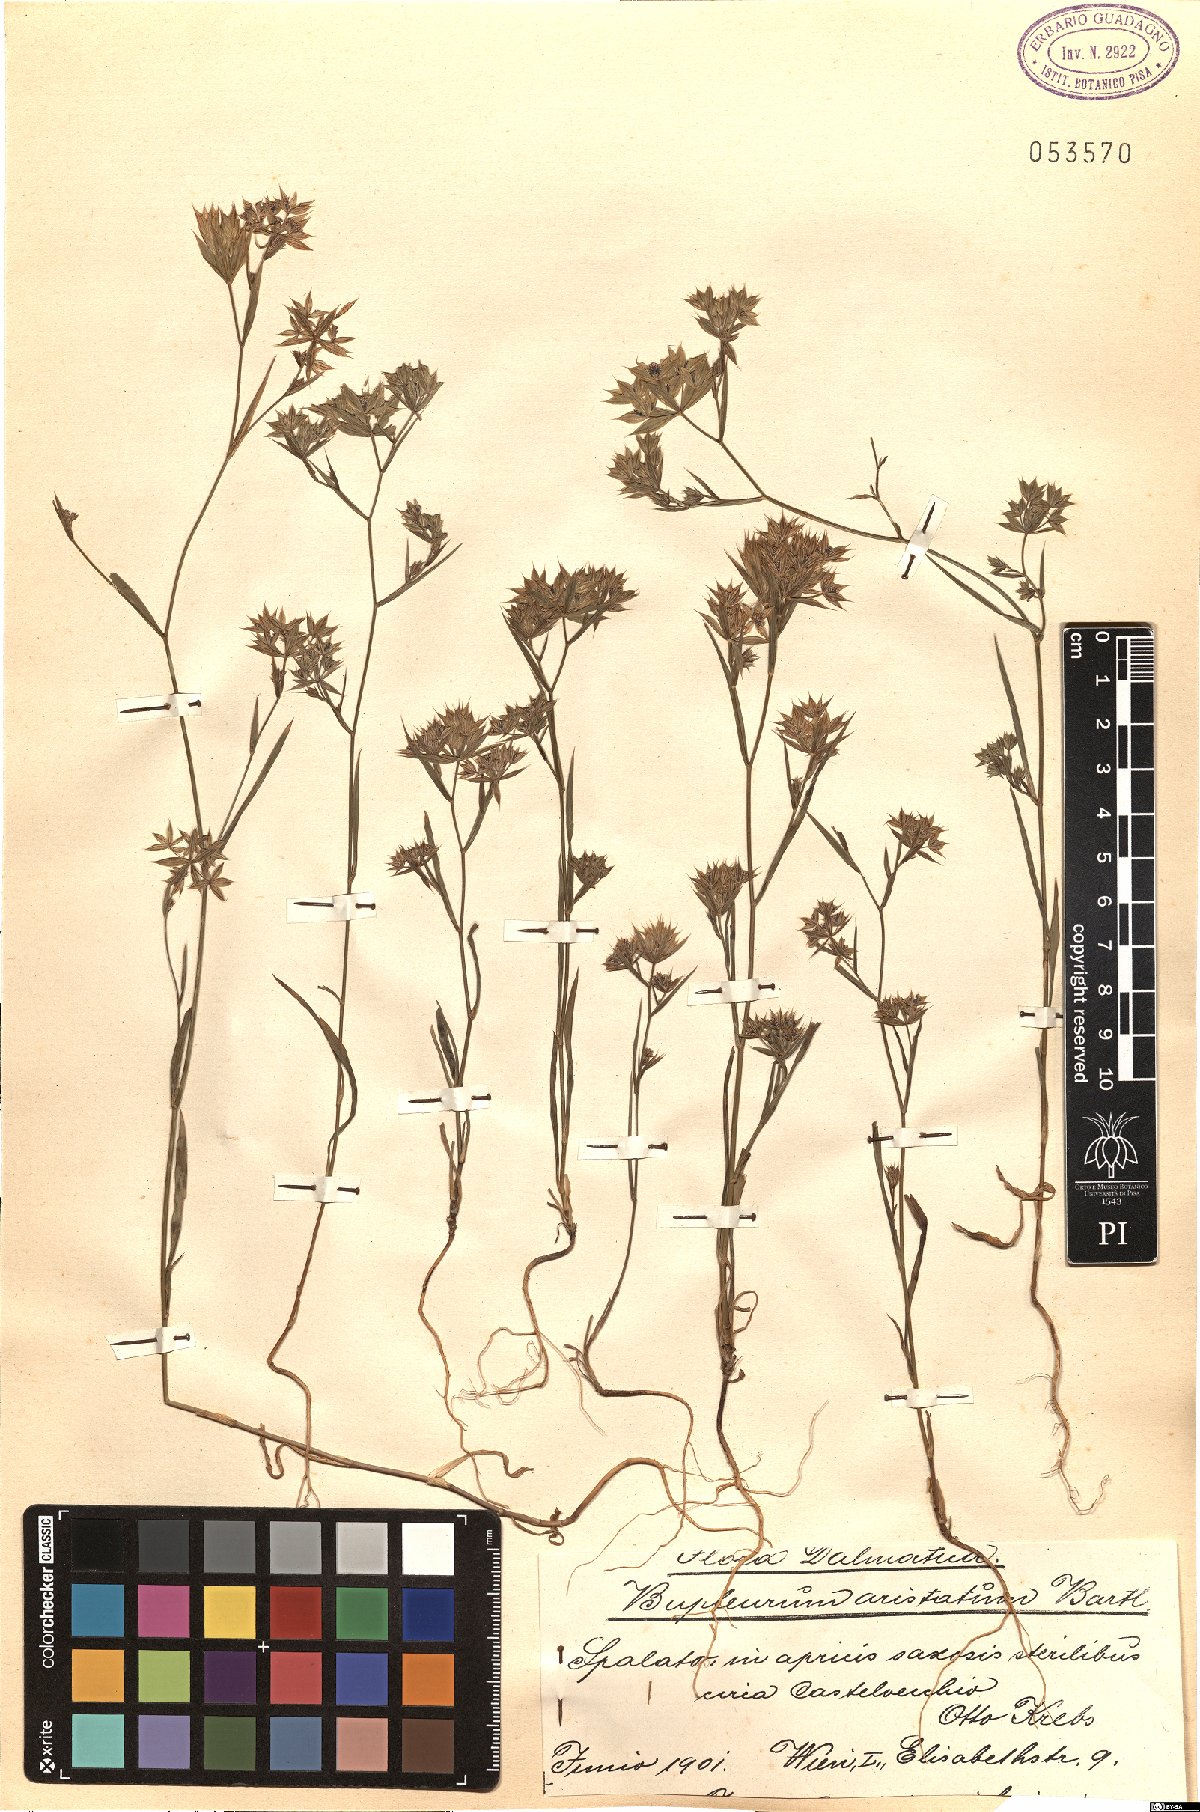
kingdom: Plantae
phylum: Tracheophyta
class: Magnoliopsida
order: Apiales
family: Apiaceae
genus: Bupleurum
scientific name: Bupleurum aristatum
